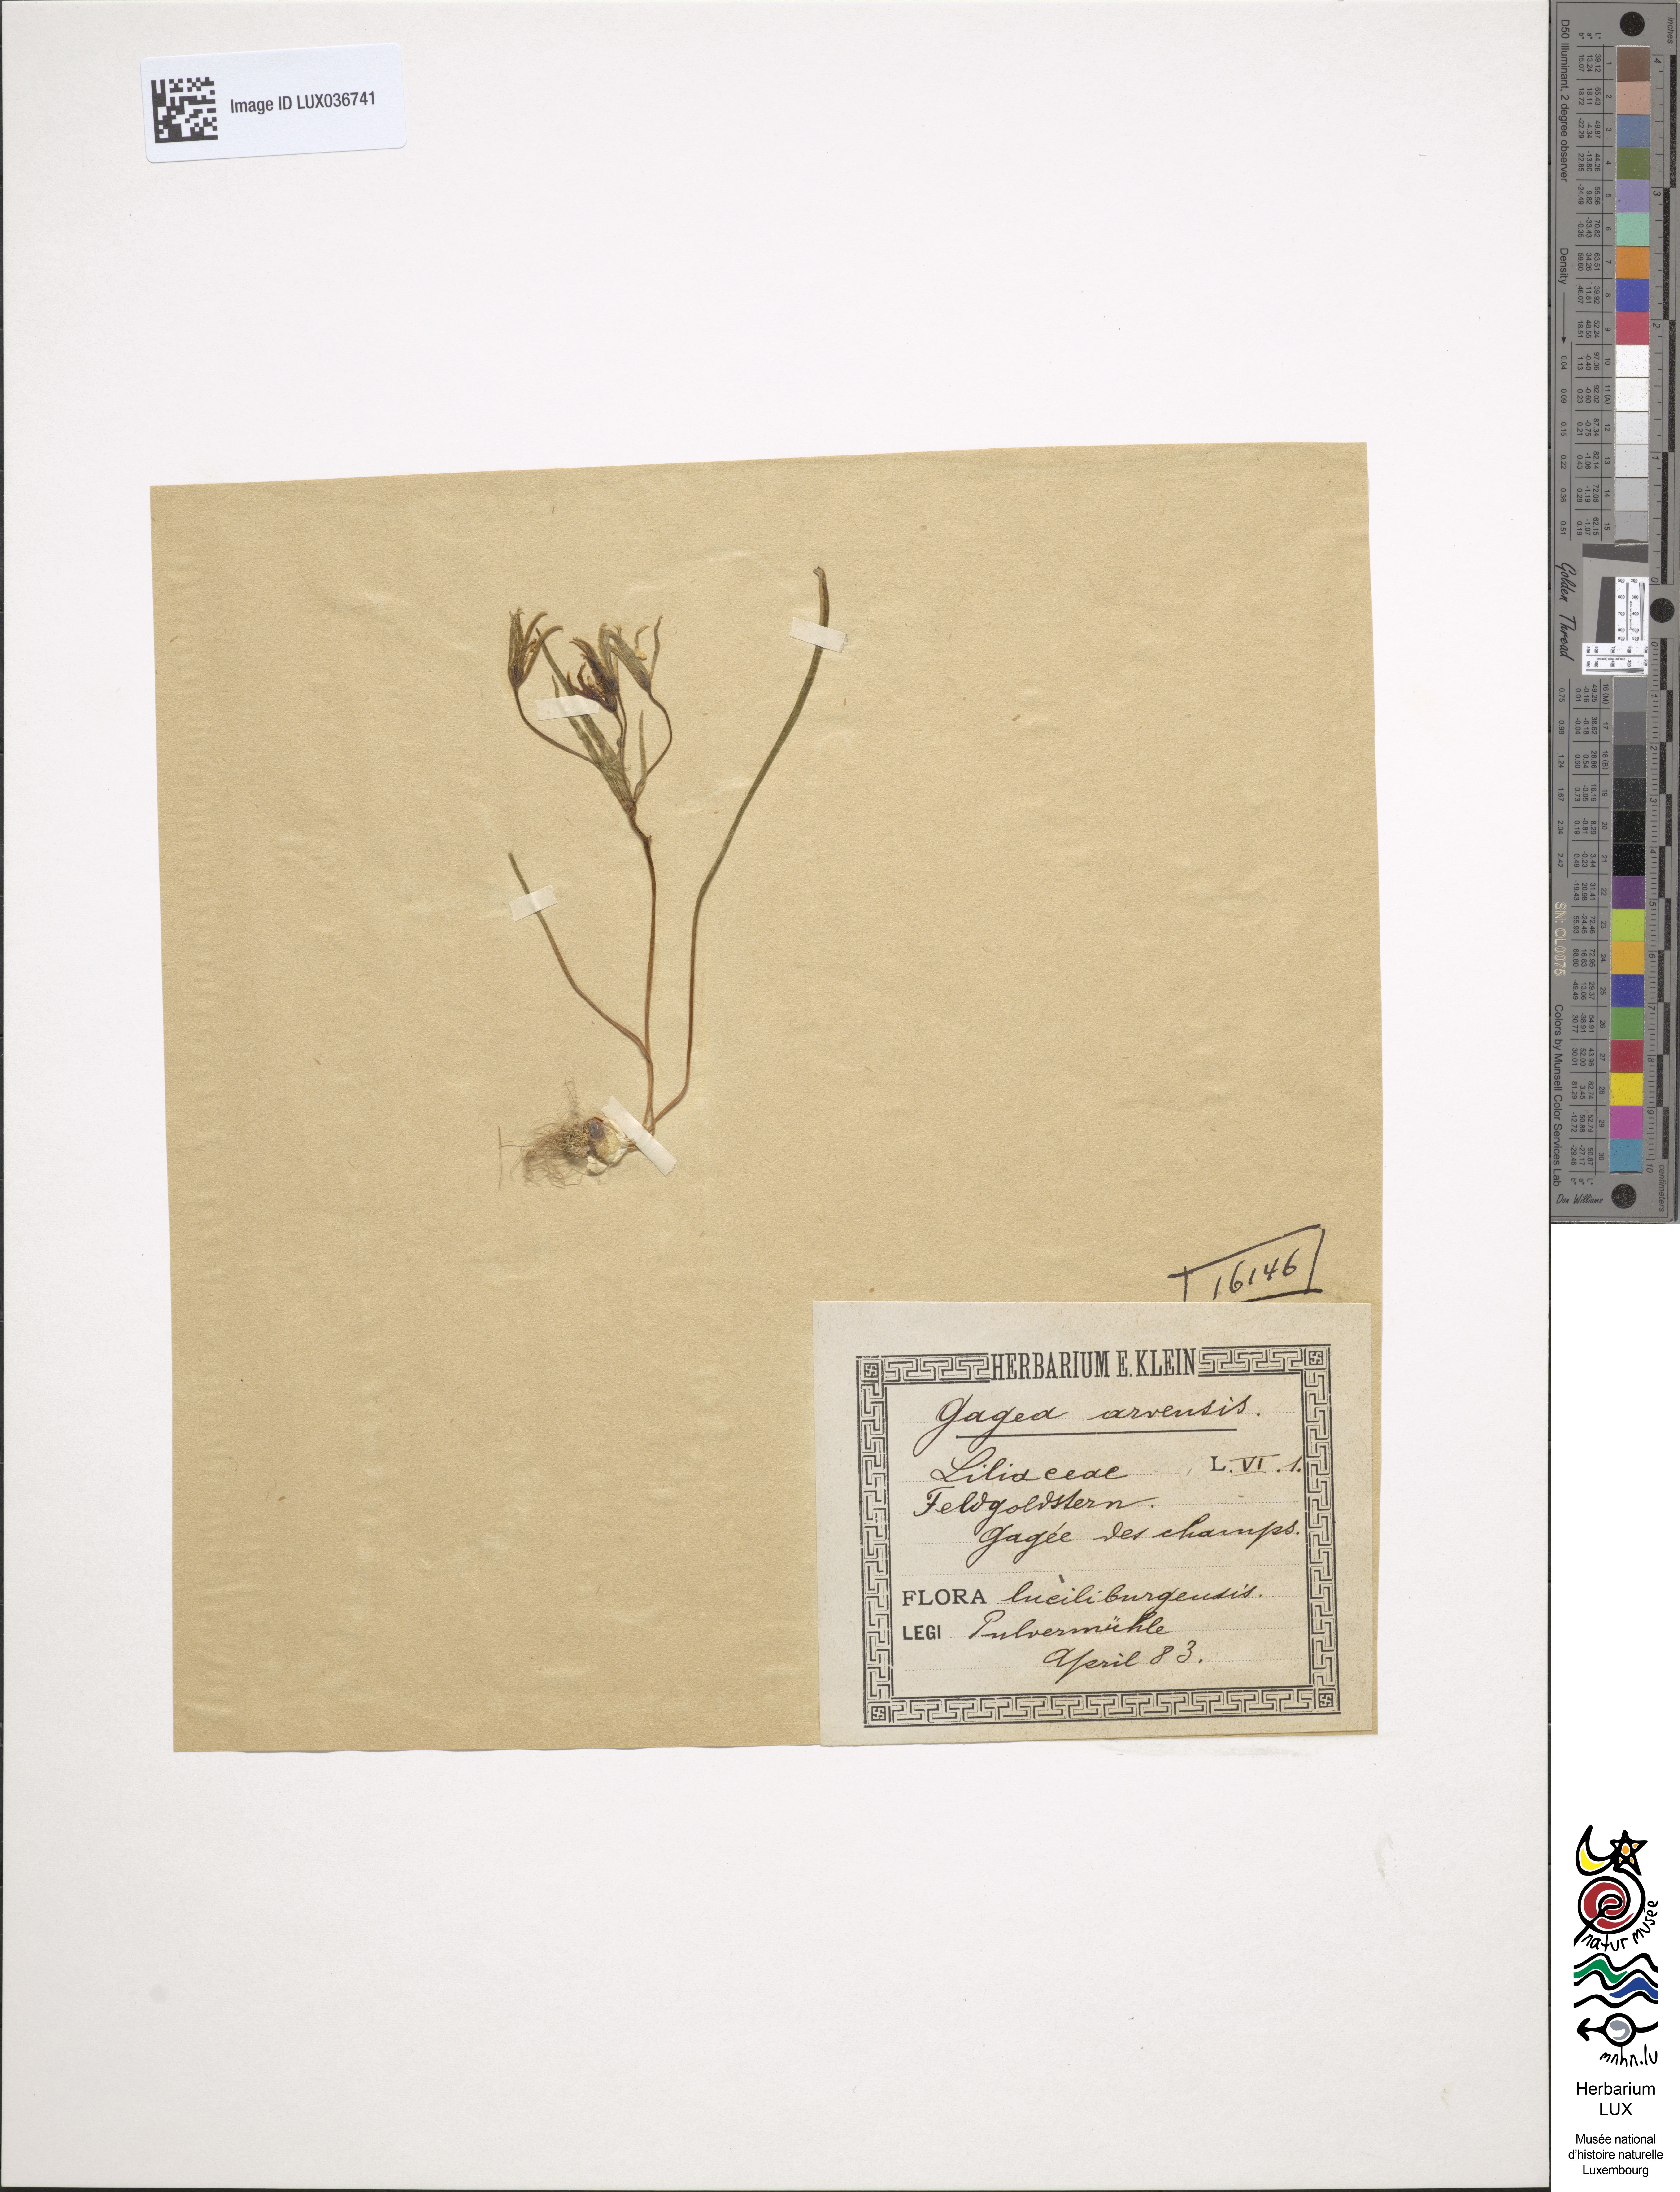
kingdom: Plantae
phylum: Tracheophyta
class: Liliopsida
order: Liliales
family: Liliaceae
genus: Gagea
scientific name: Gagea minima
